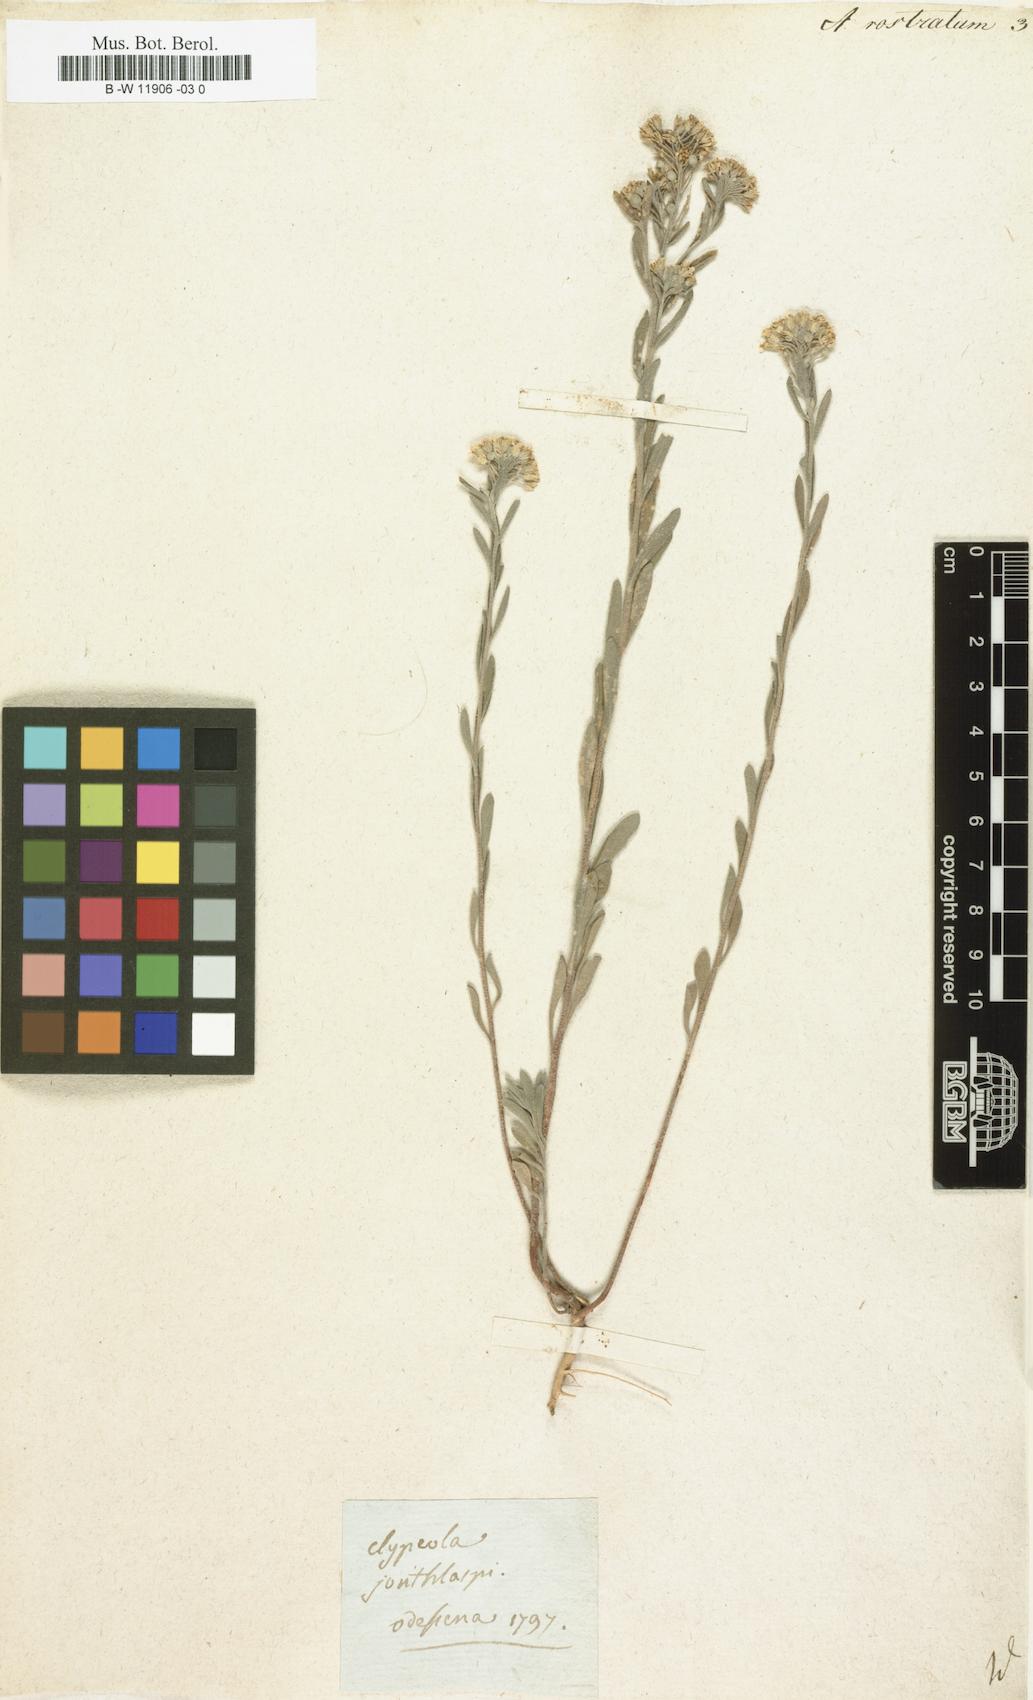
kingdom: Plantae
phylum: Tracheophyta
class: Magnoliopsida
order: Brassicales
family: Brassicaceae
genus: Alyssum
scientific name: Alyssum rostratum
